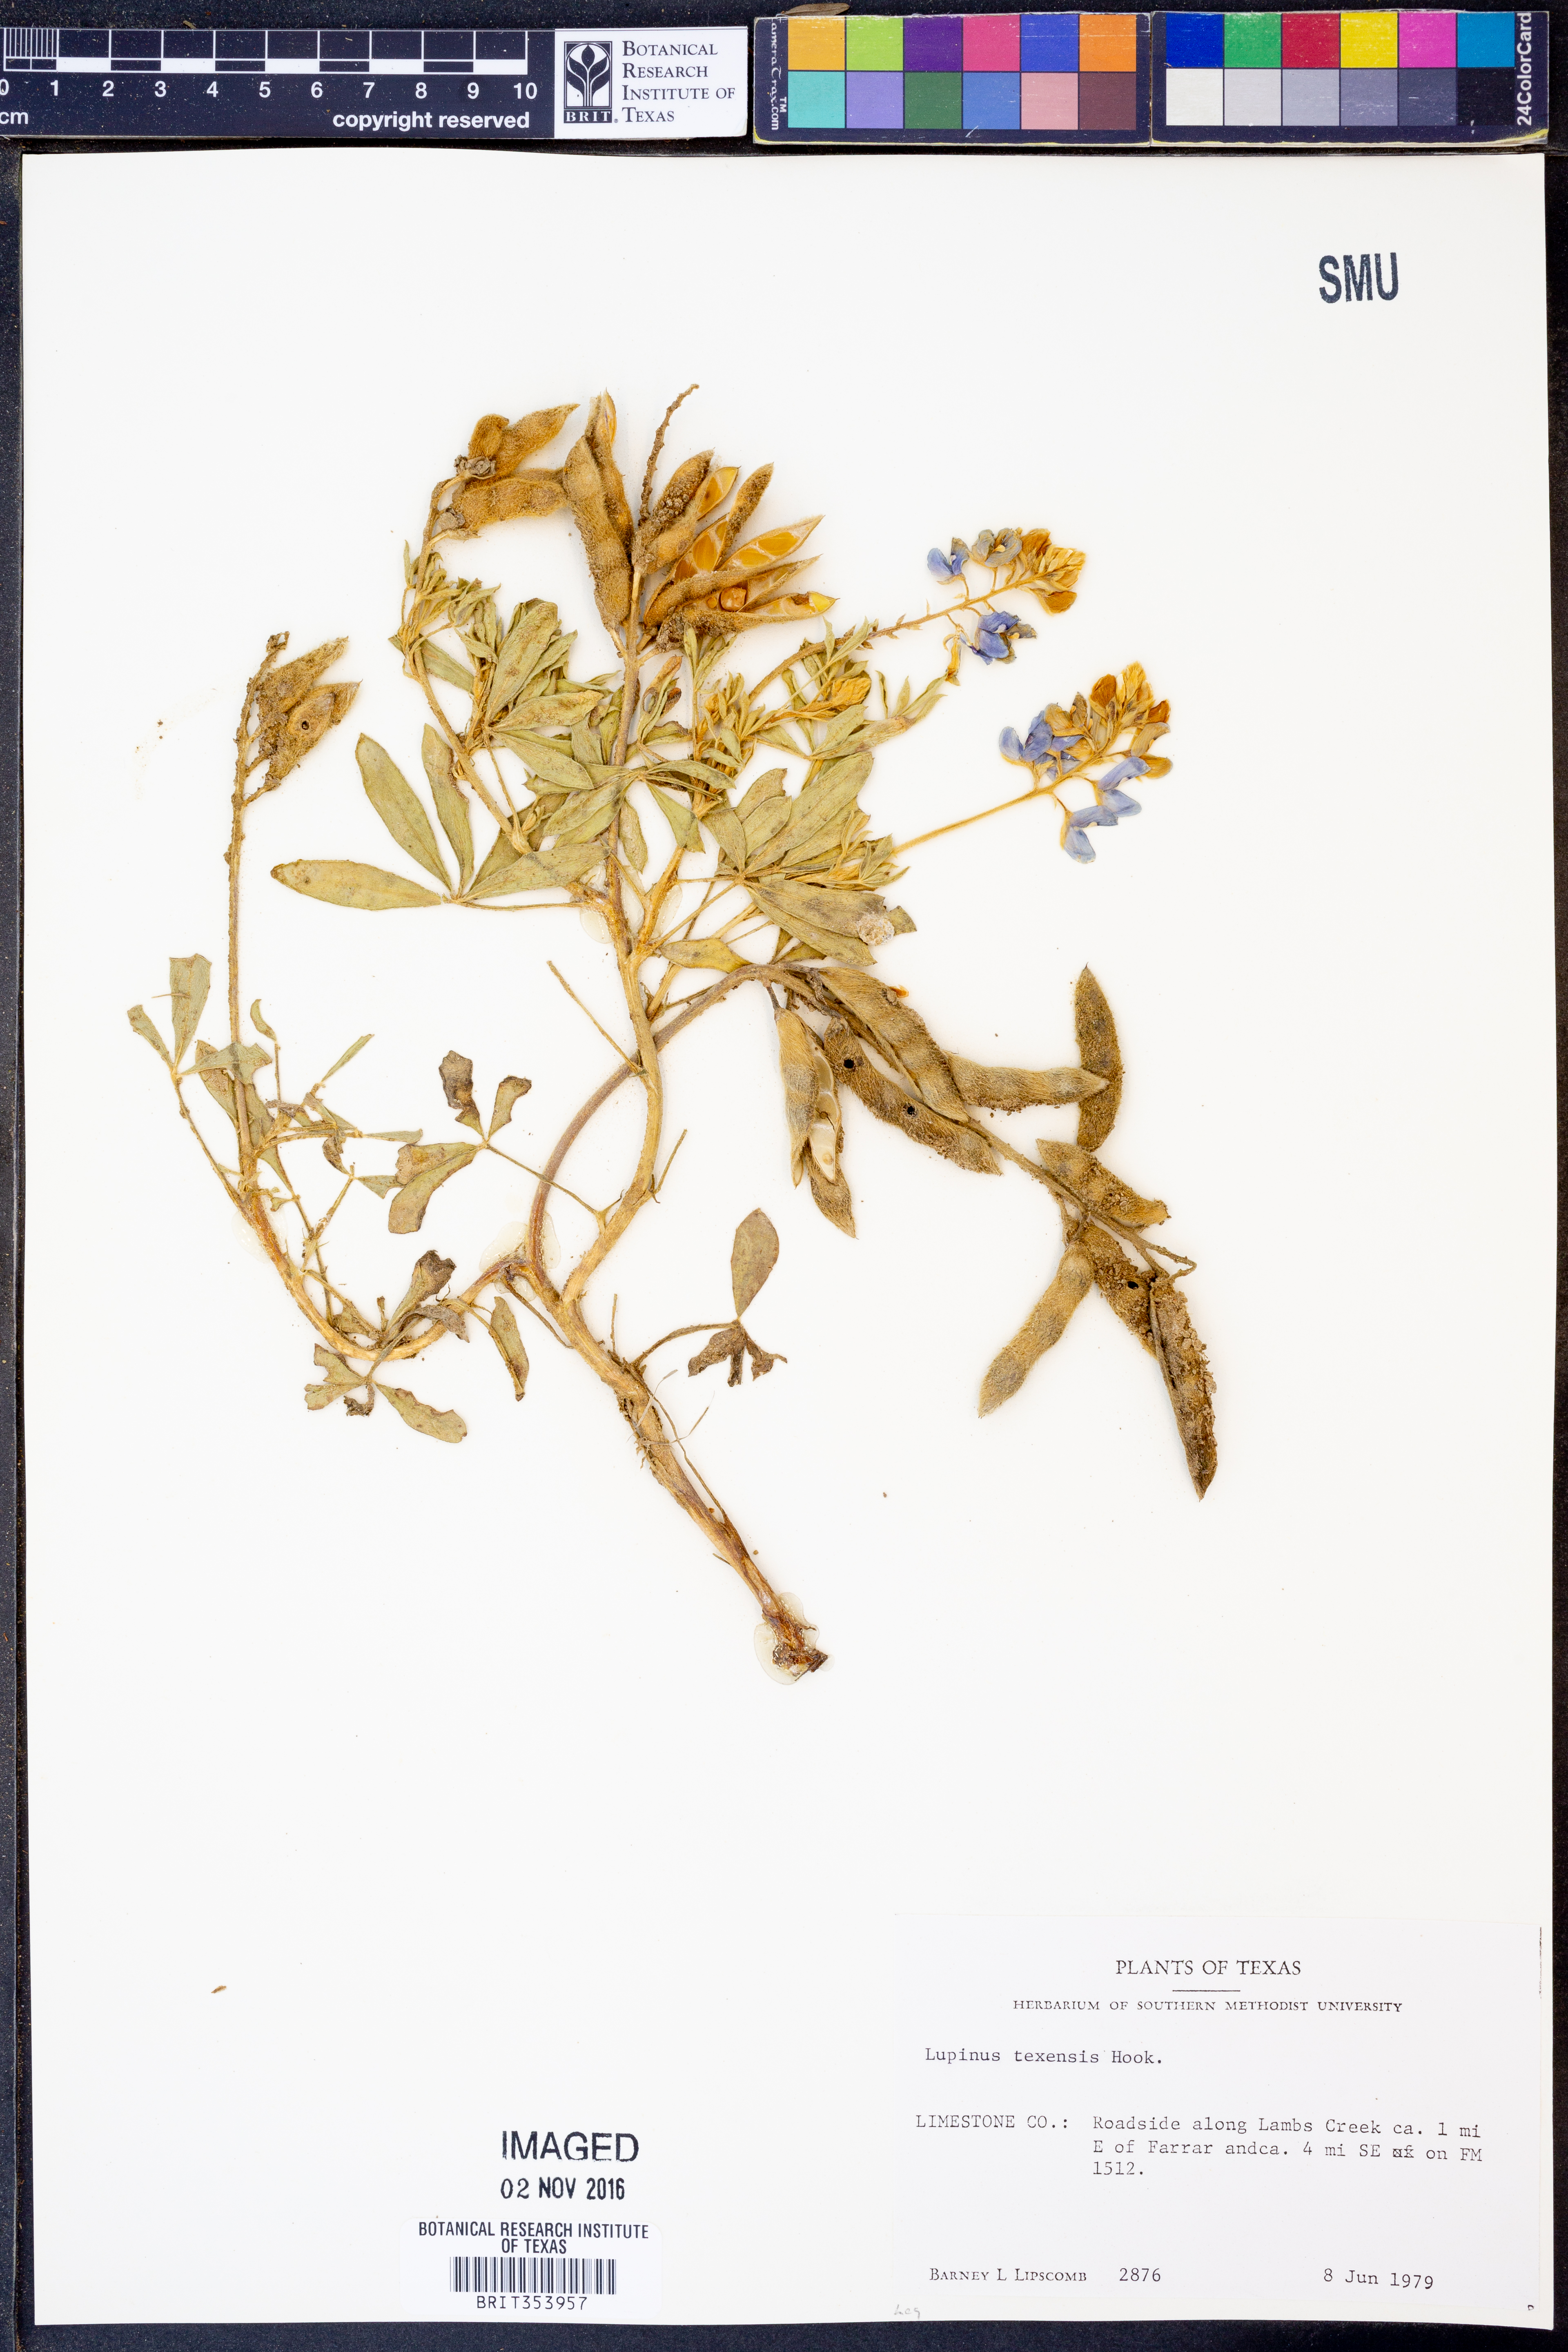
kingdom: Plantae
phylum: Tracheophyta
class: Magnoliopsida
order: Fabales
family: Fabaceae
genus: Lupinus
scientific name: Lupinus texensis
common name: Texas bluebonnet
